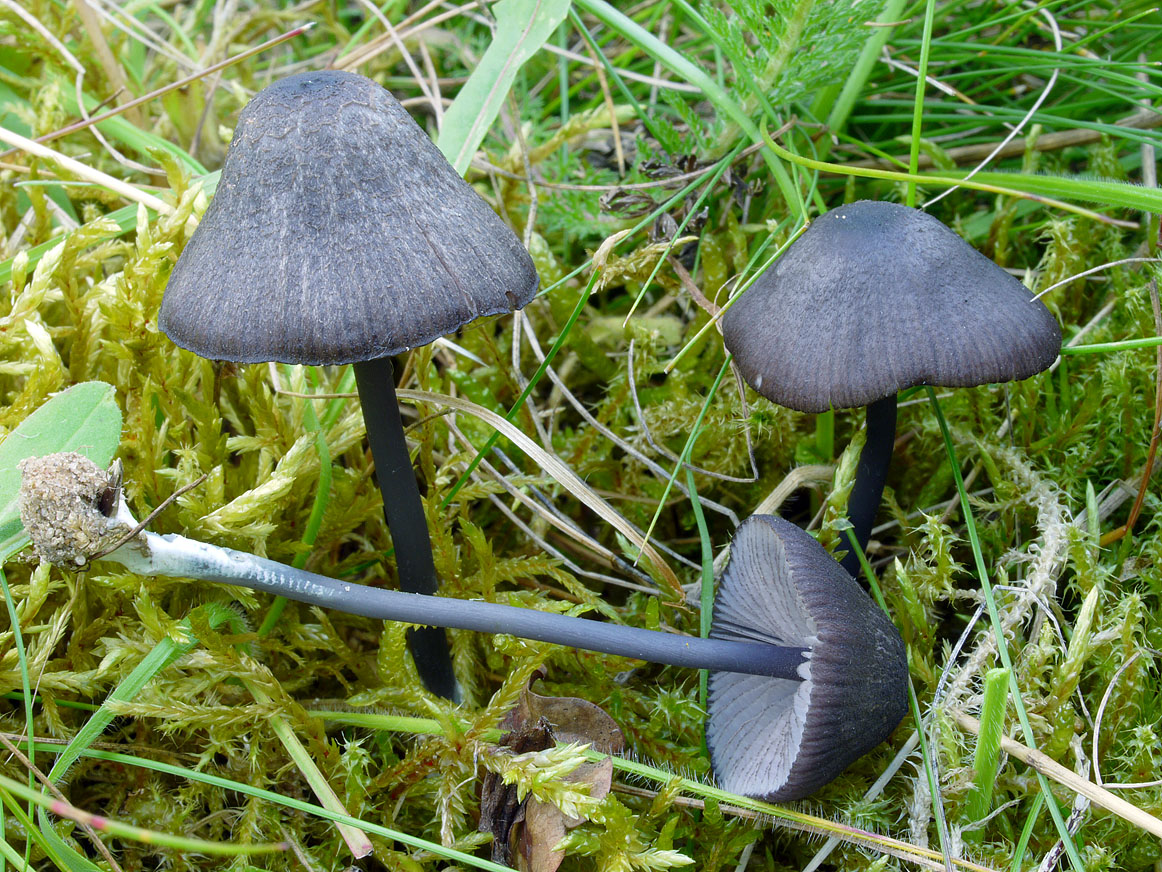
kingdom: Fungi
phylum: Basidiomycota
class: Agaricomycetes
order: Agaricales
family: Entolomataceae
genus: Entoloma
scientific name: Entoloma chalybeum
